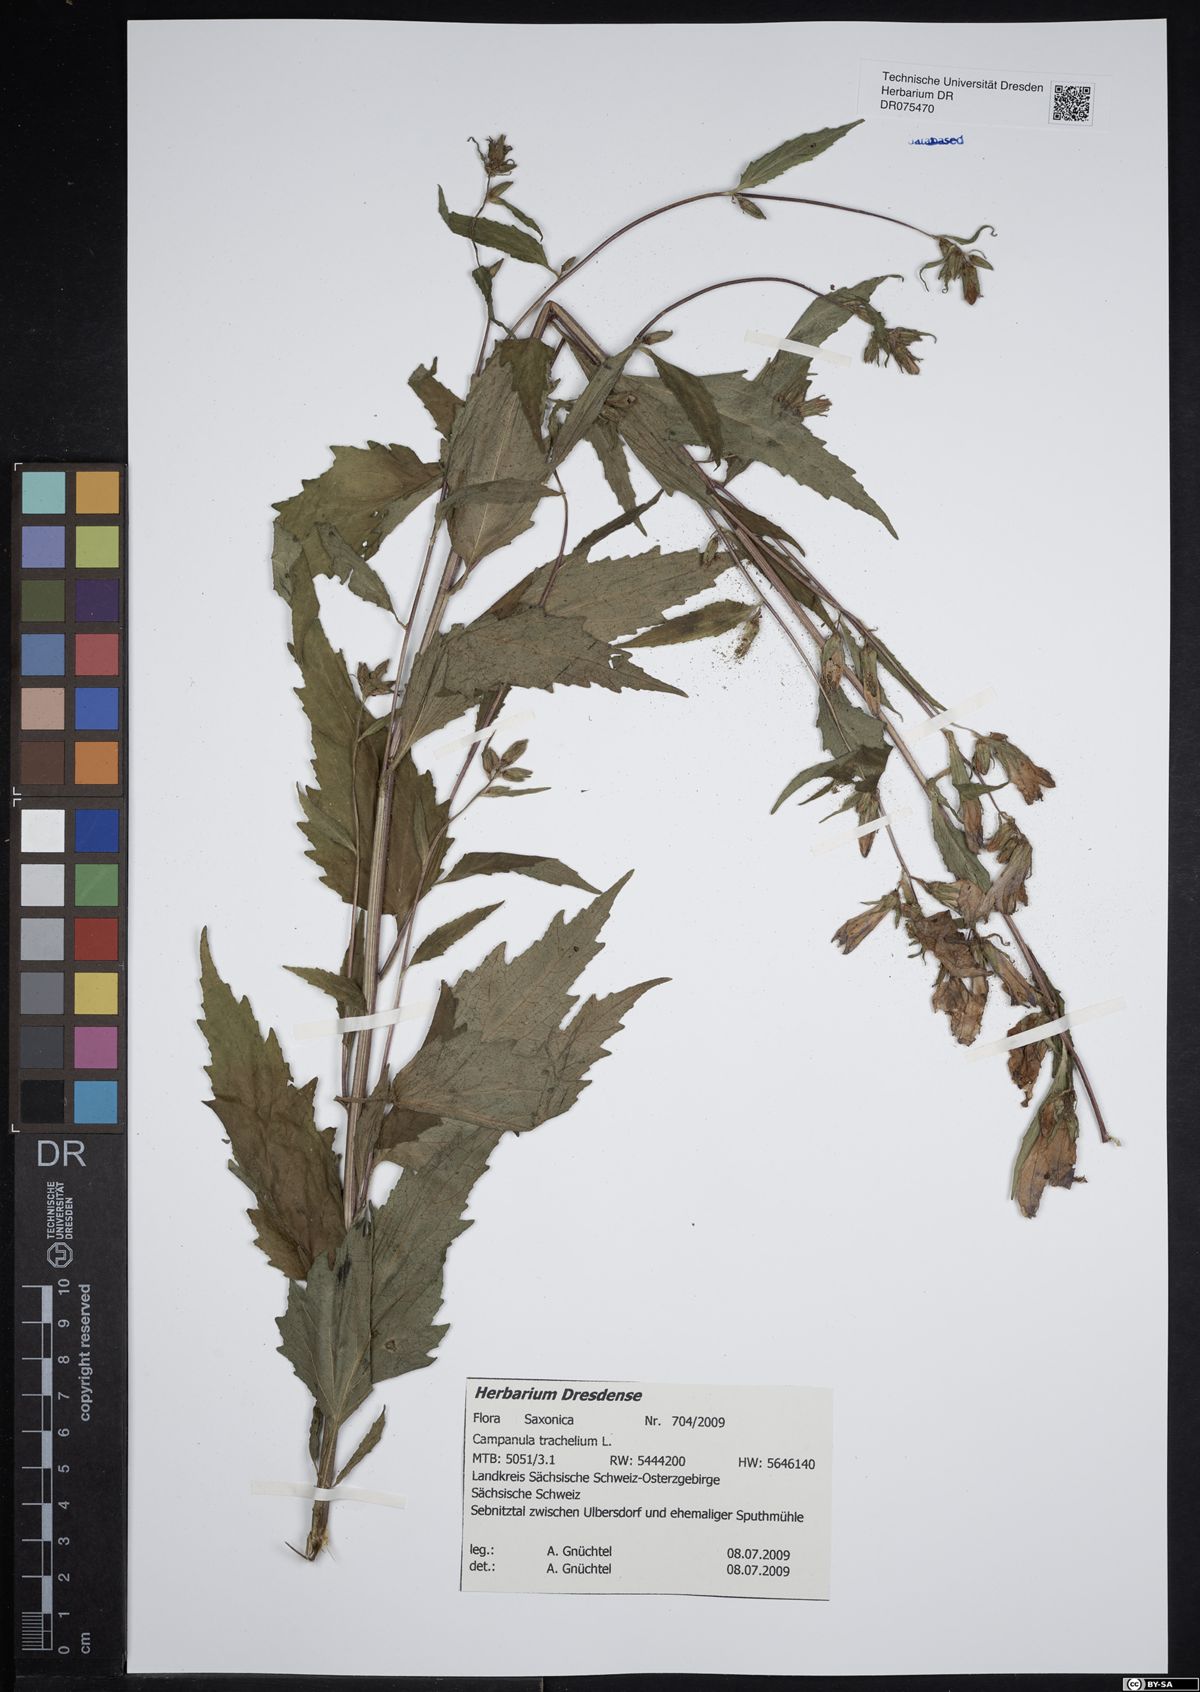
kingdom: Plantae
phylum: Tracheophyta
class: Magnoliopsida
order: Asterales
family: Campanulaceae
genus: Campanula
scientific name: Campanula trachelium
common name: Nettle-leaved bellflower
